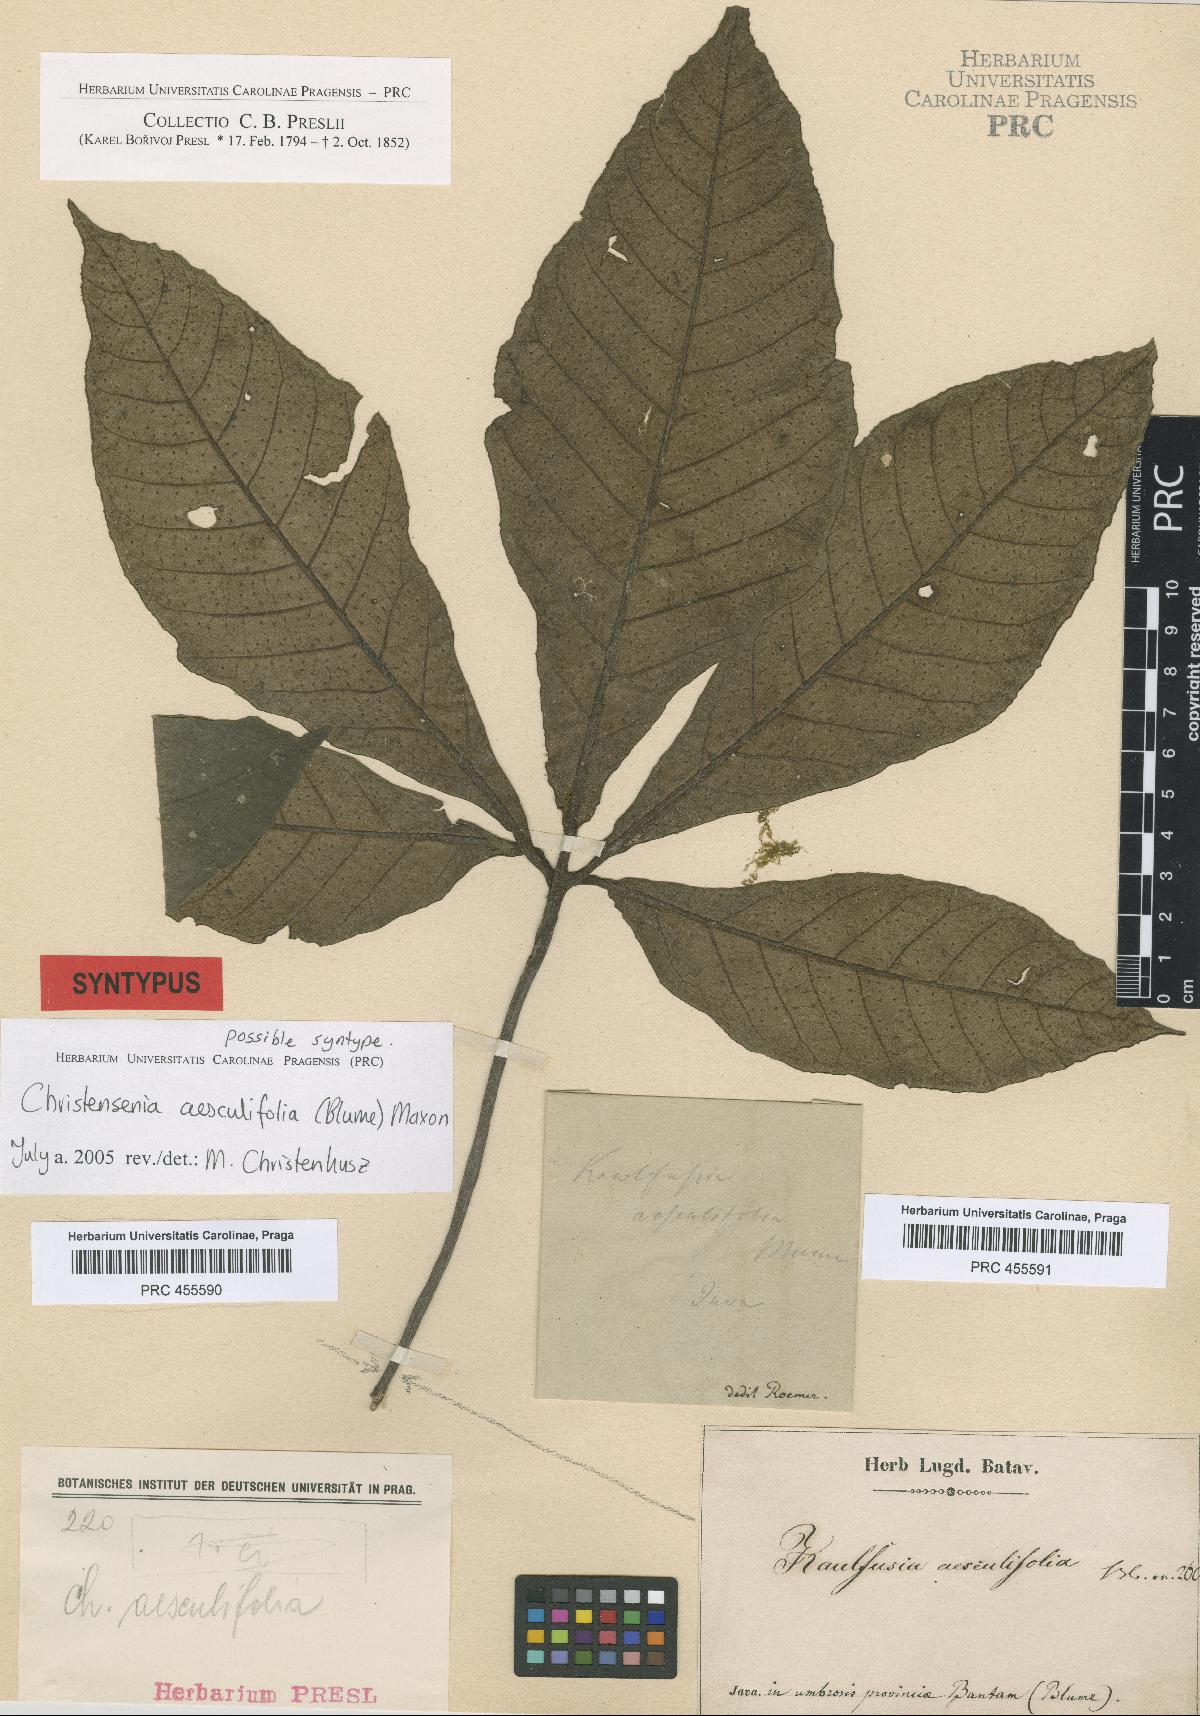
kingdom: Plantae
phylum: Tracheophyta
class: Polypodiopsida
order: Marattiales
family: Marattiaceae
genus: Christensenia
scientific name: Christensenia aesculifolia
